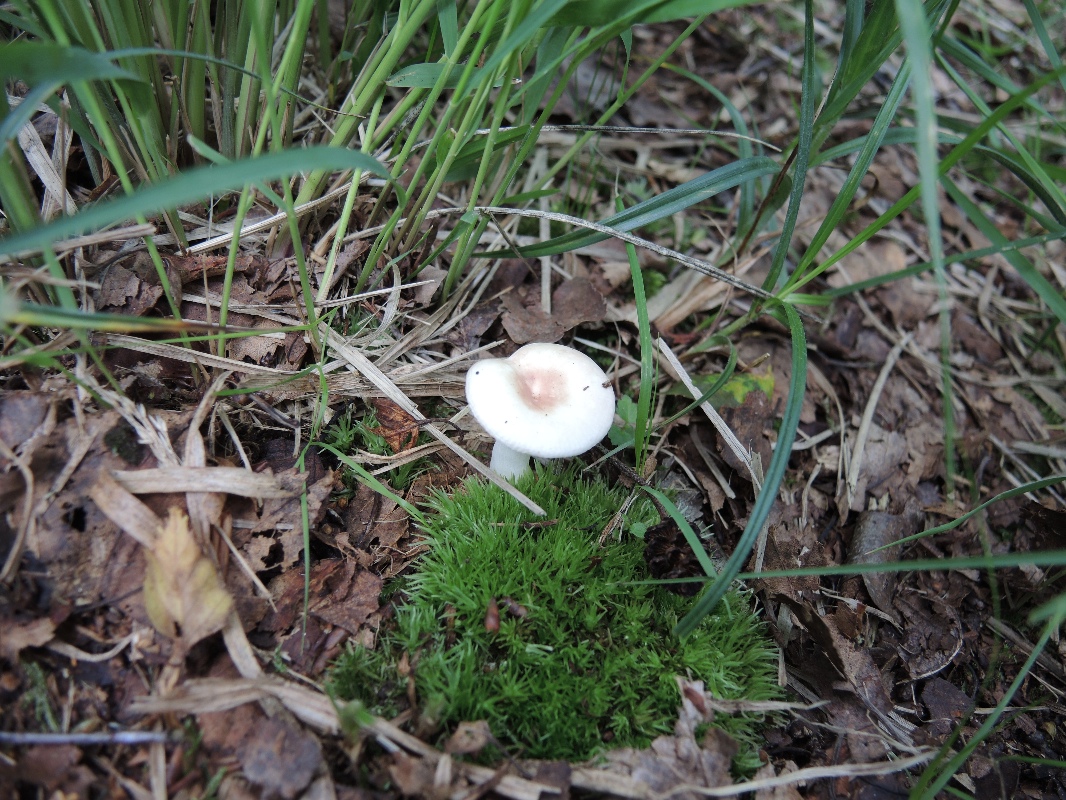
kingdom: Fungi
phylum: Basidiomycota
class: Agaricomycetes
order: Russulales
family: Russulaceae
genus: Russula
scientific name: Russula betularum
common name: bleg gift-skørhat
